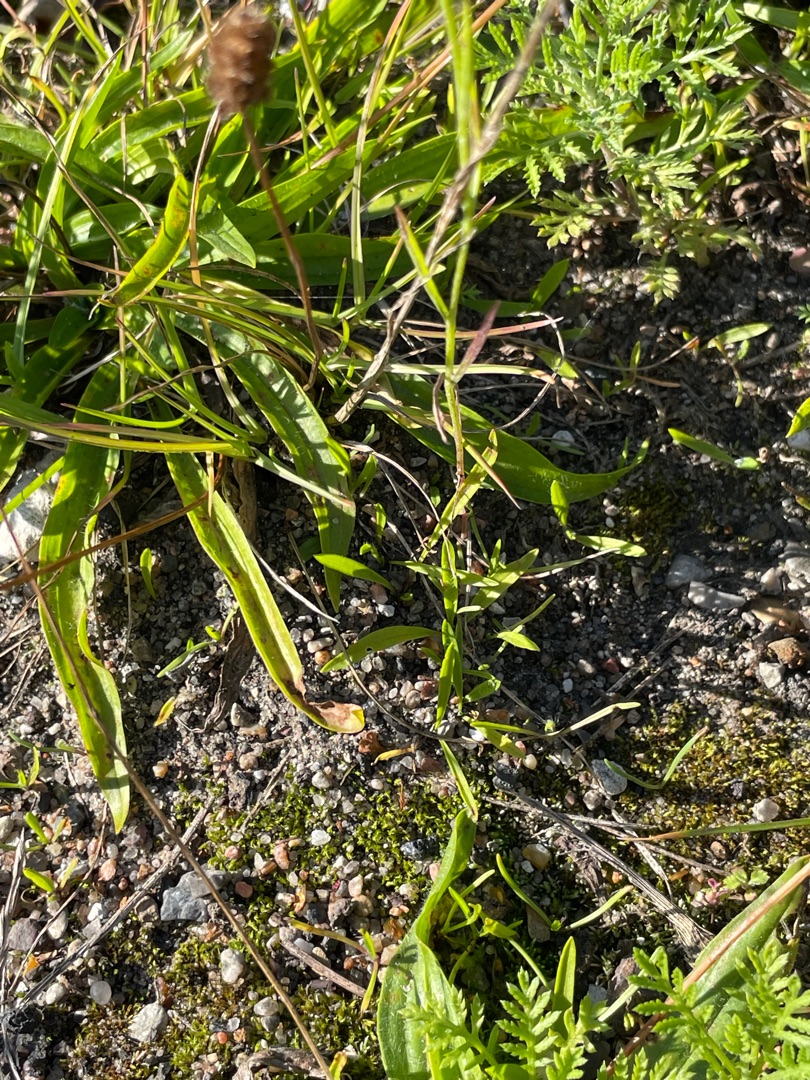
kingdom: Plantae
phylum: Tracheophyta
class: Magnoliopsida
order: Asterales
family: Asteraceae
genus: Centaurea
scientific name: Centaurea cyanus
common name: Kornblomst
